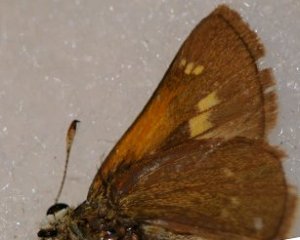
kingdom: Animalia
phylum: Arthropoda
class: Insecta
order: Lepidoptera
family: Hesperiidae
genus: Polites
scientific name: Polites themistocles
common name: Tawny-edged Skipper
